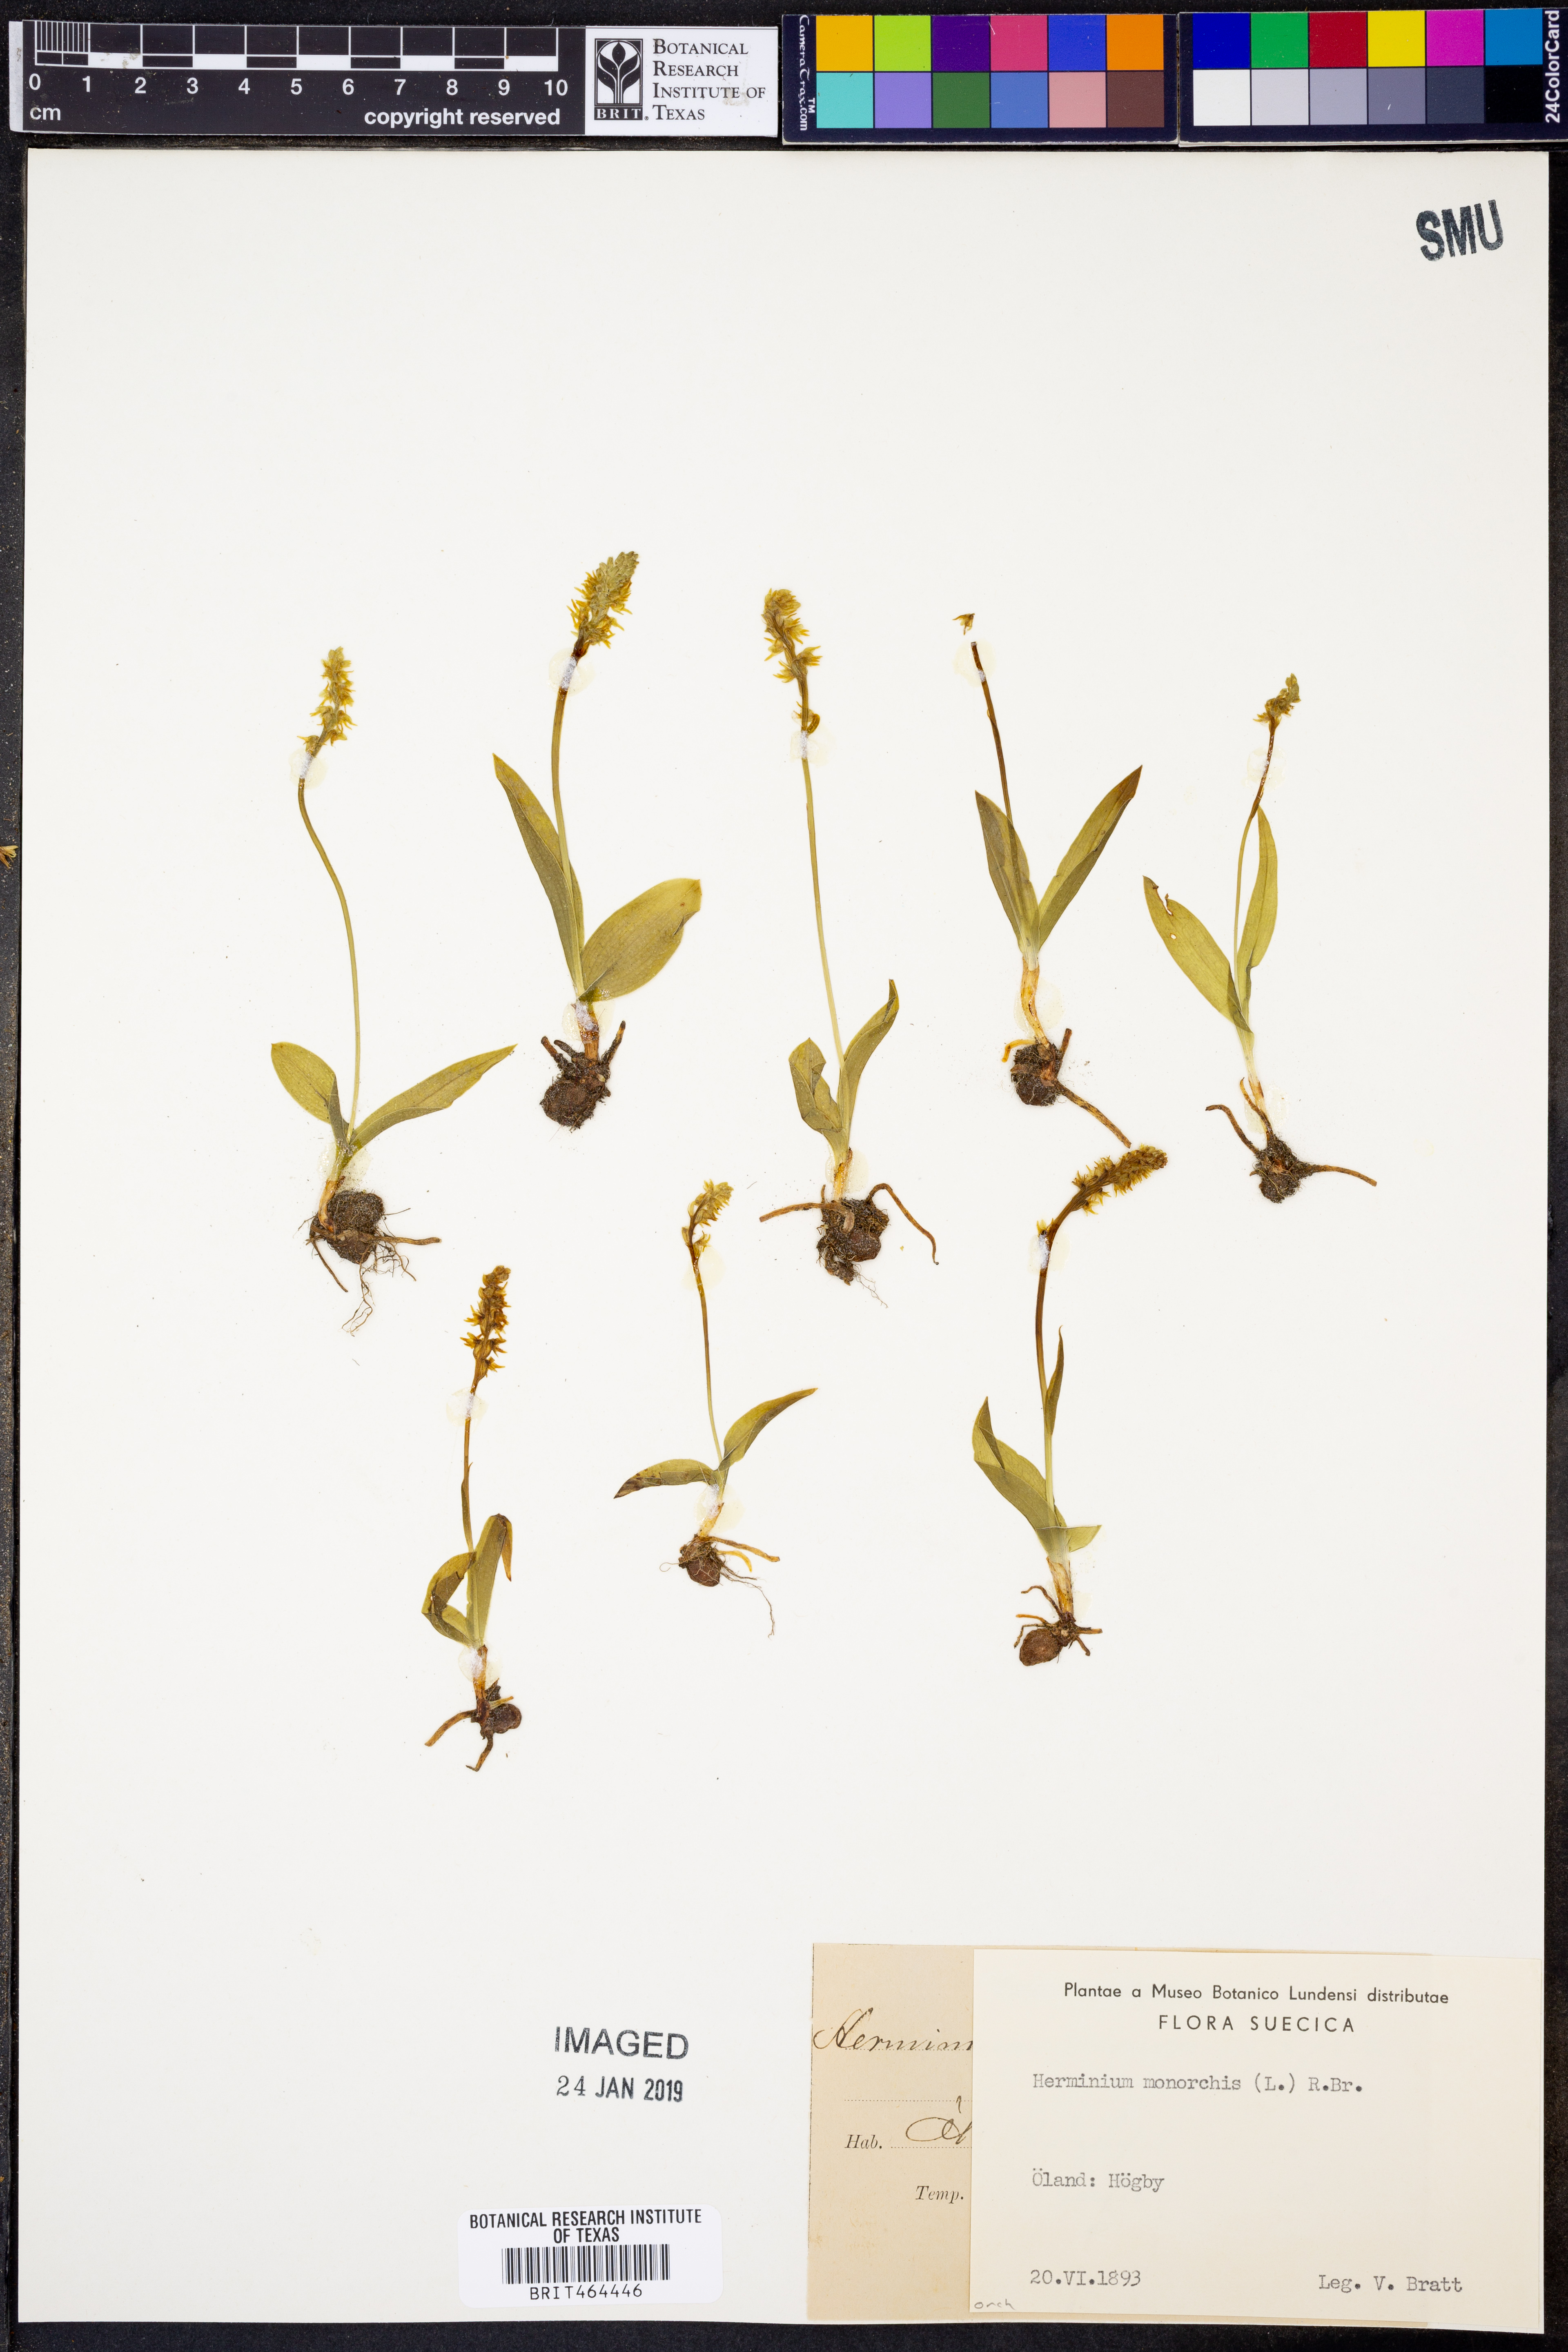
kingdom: Plantae
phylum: Tracheophyta
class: Liliopsida
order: Asparagales
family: Orchidaceae
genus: Herminium
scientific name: Herminium monorchis
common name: Musk orchid
